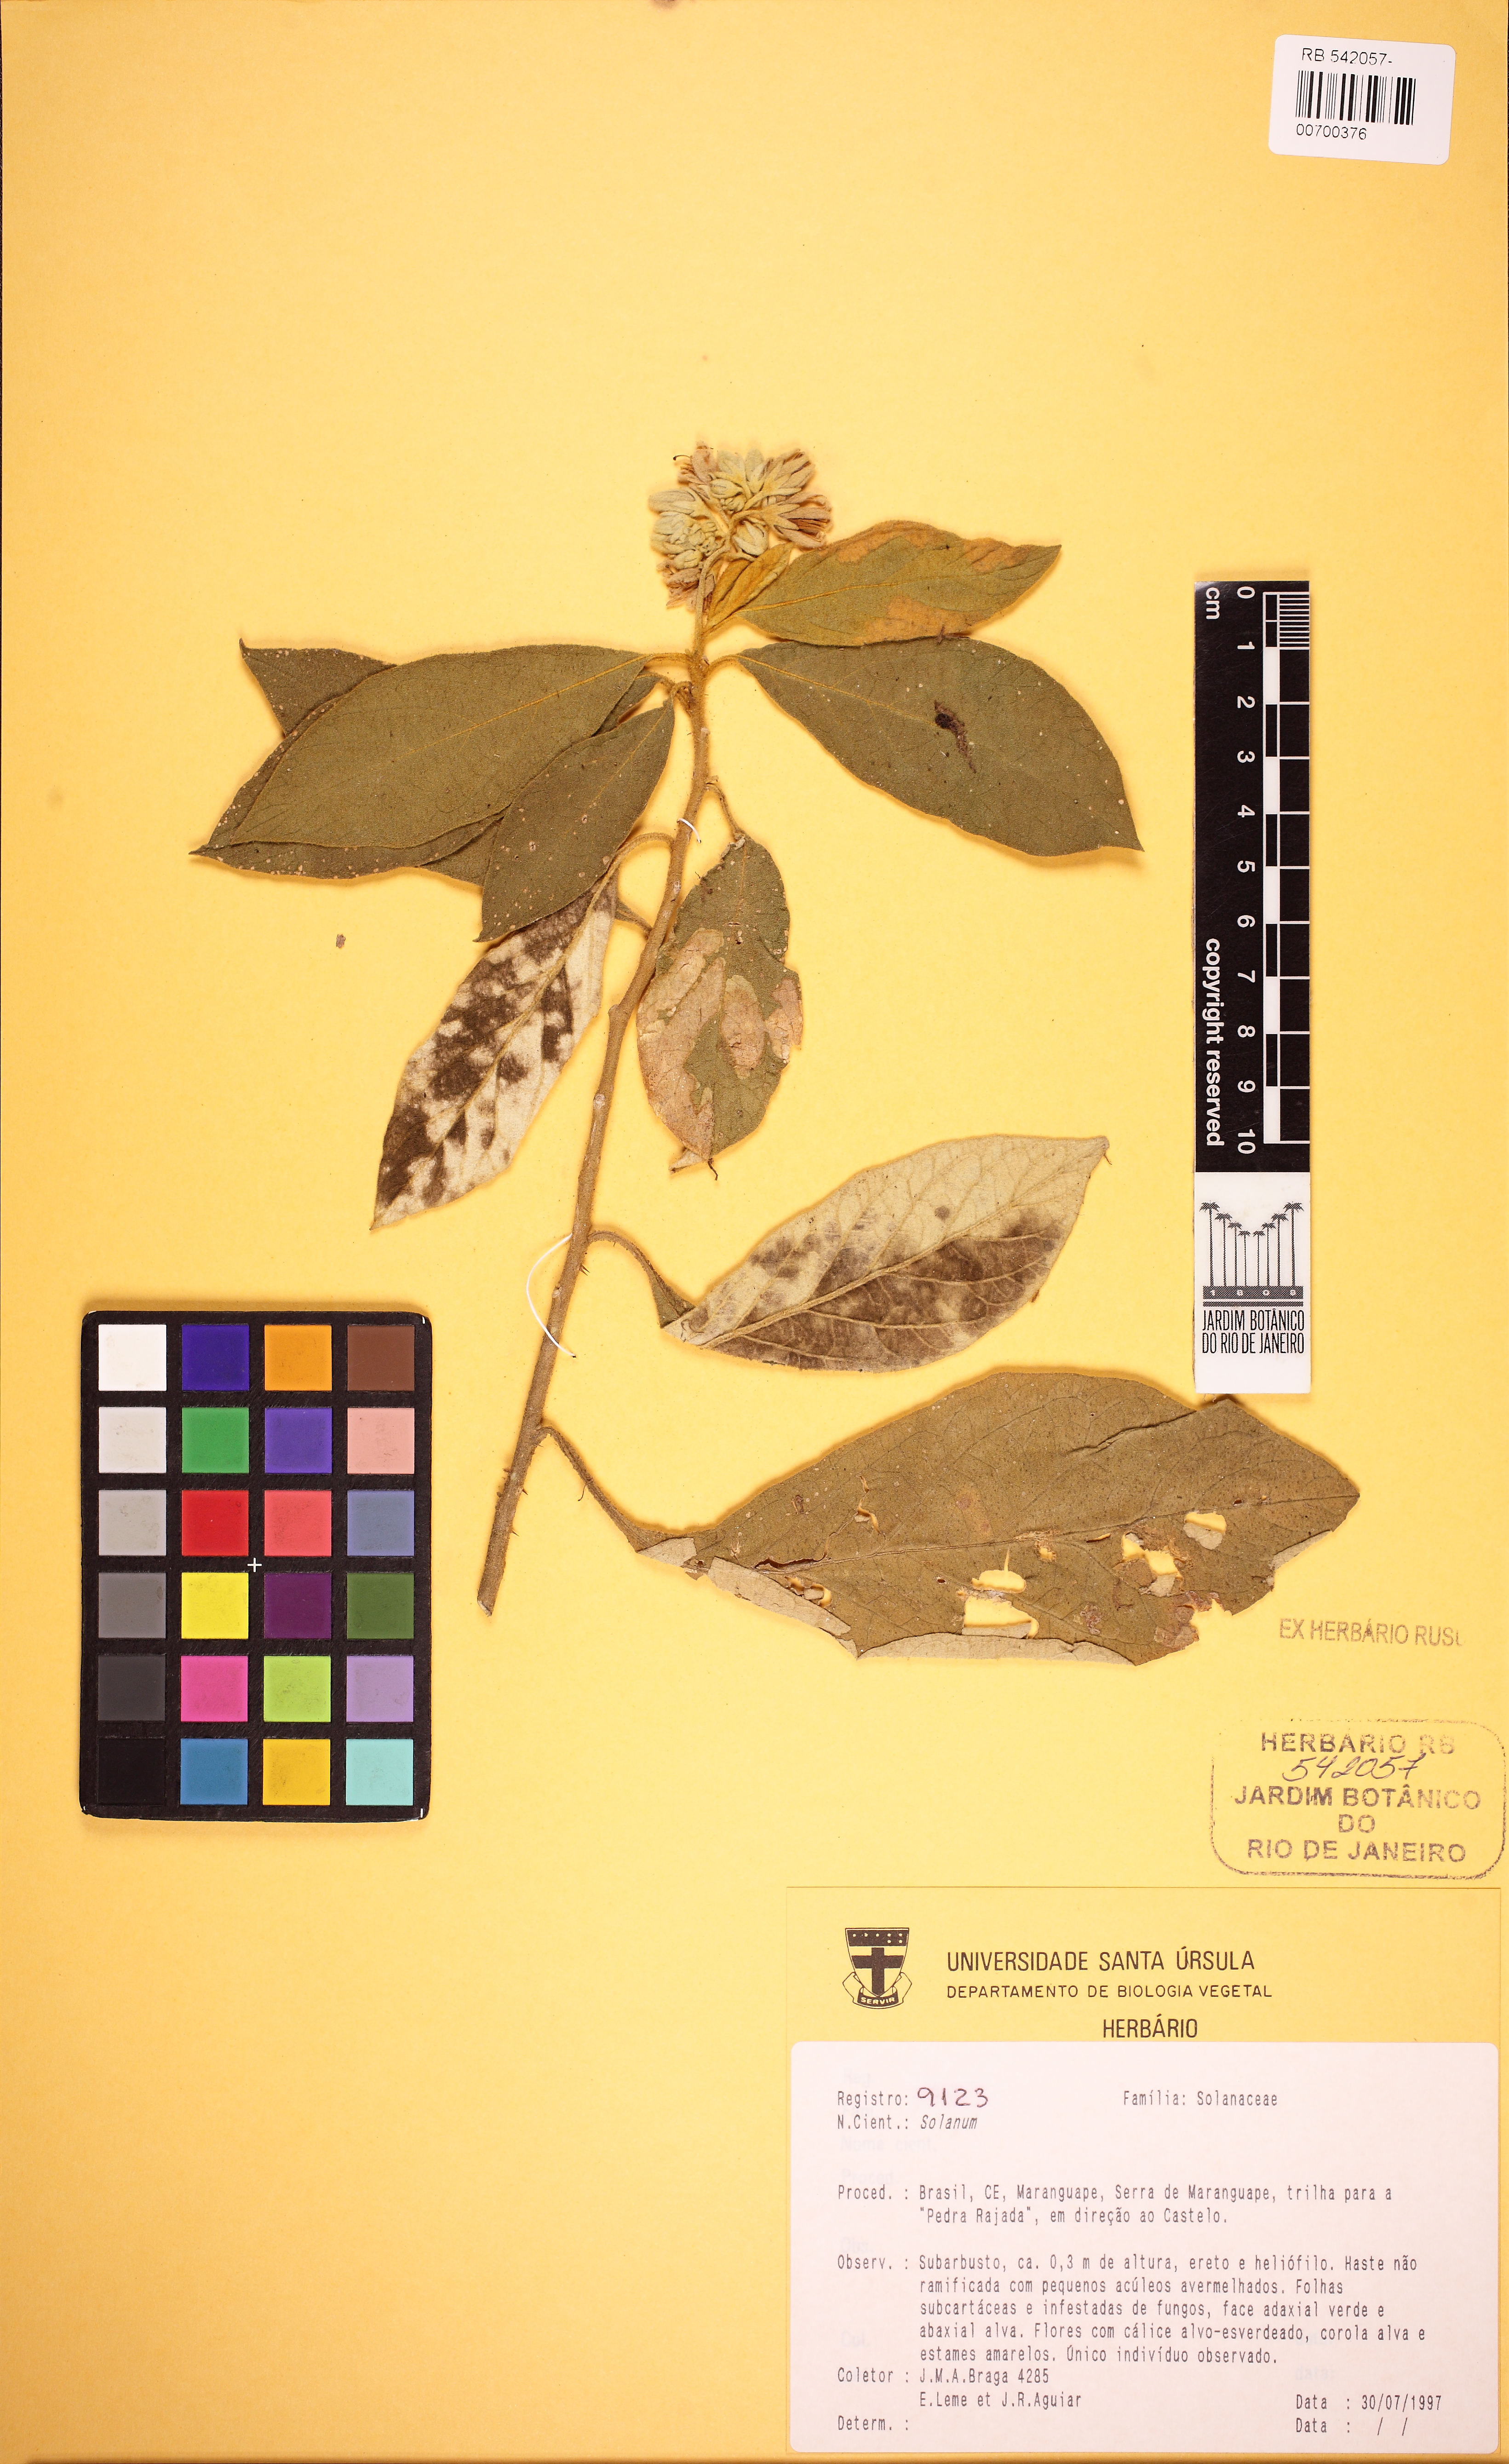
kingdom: Plantae
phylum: Tracheophyta
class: Magnoliopsida
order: Solanales
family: Solanaceae
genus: Solanum
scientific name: Solanum rhytidoandrum
